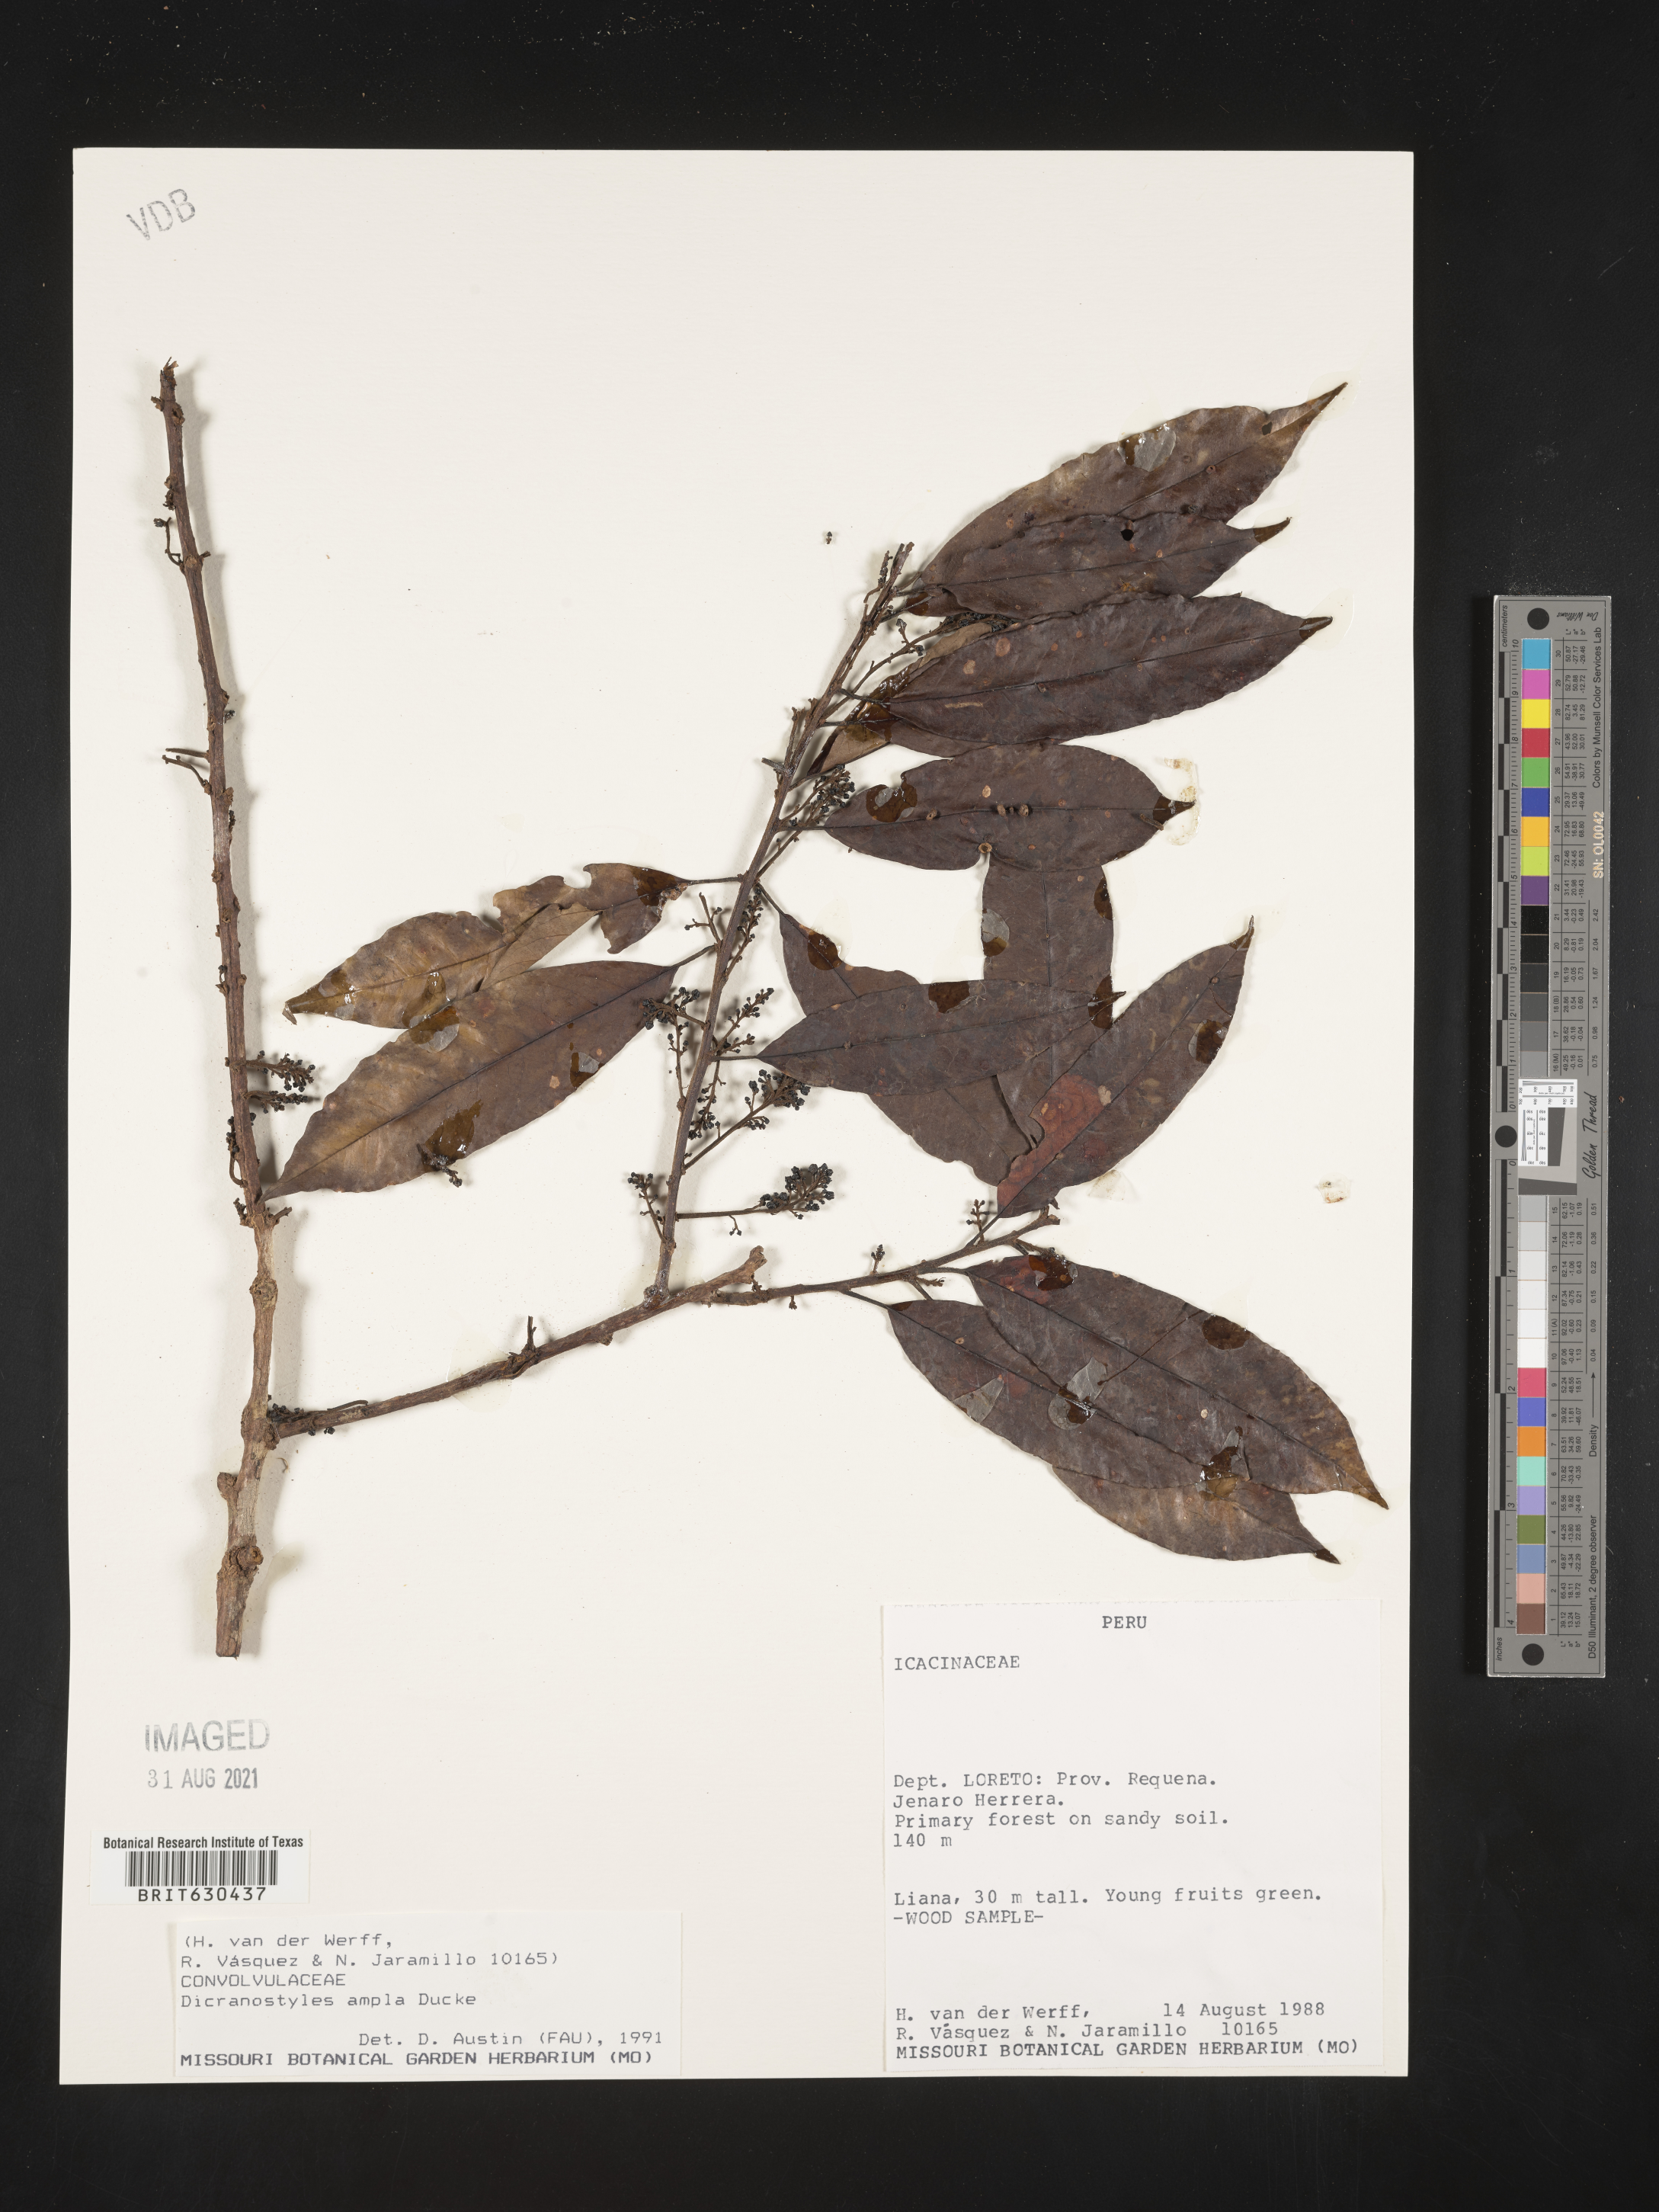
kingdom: Plantae
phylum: Tracheophyta
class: Magnoliopsida
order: Solanales
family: Convolvulaceae
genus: Dicranostyles
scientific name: Dicranostyles ampla
